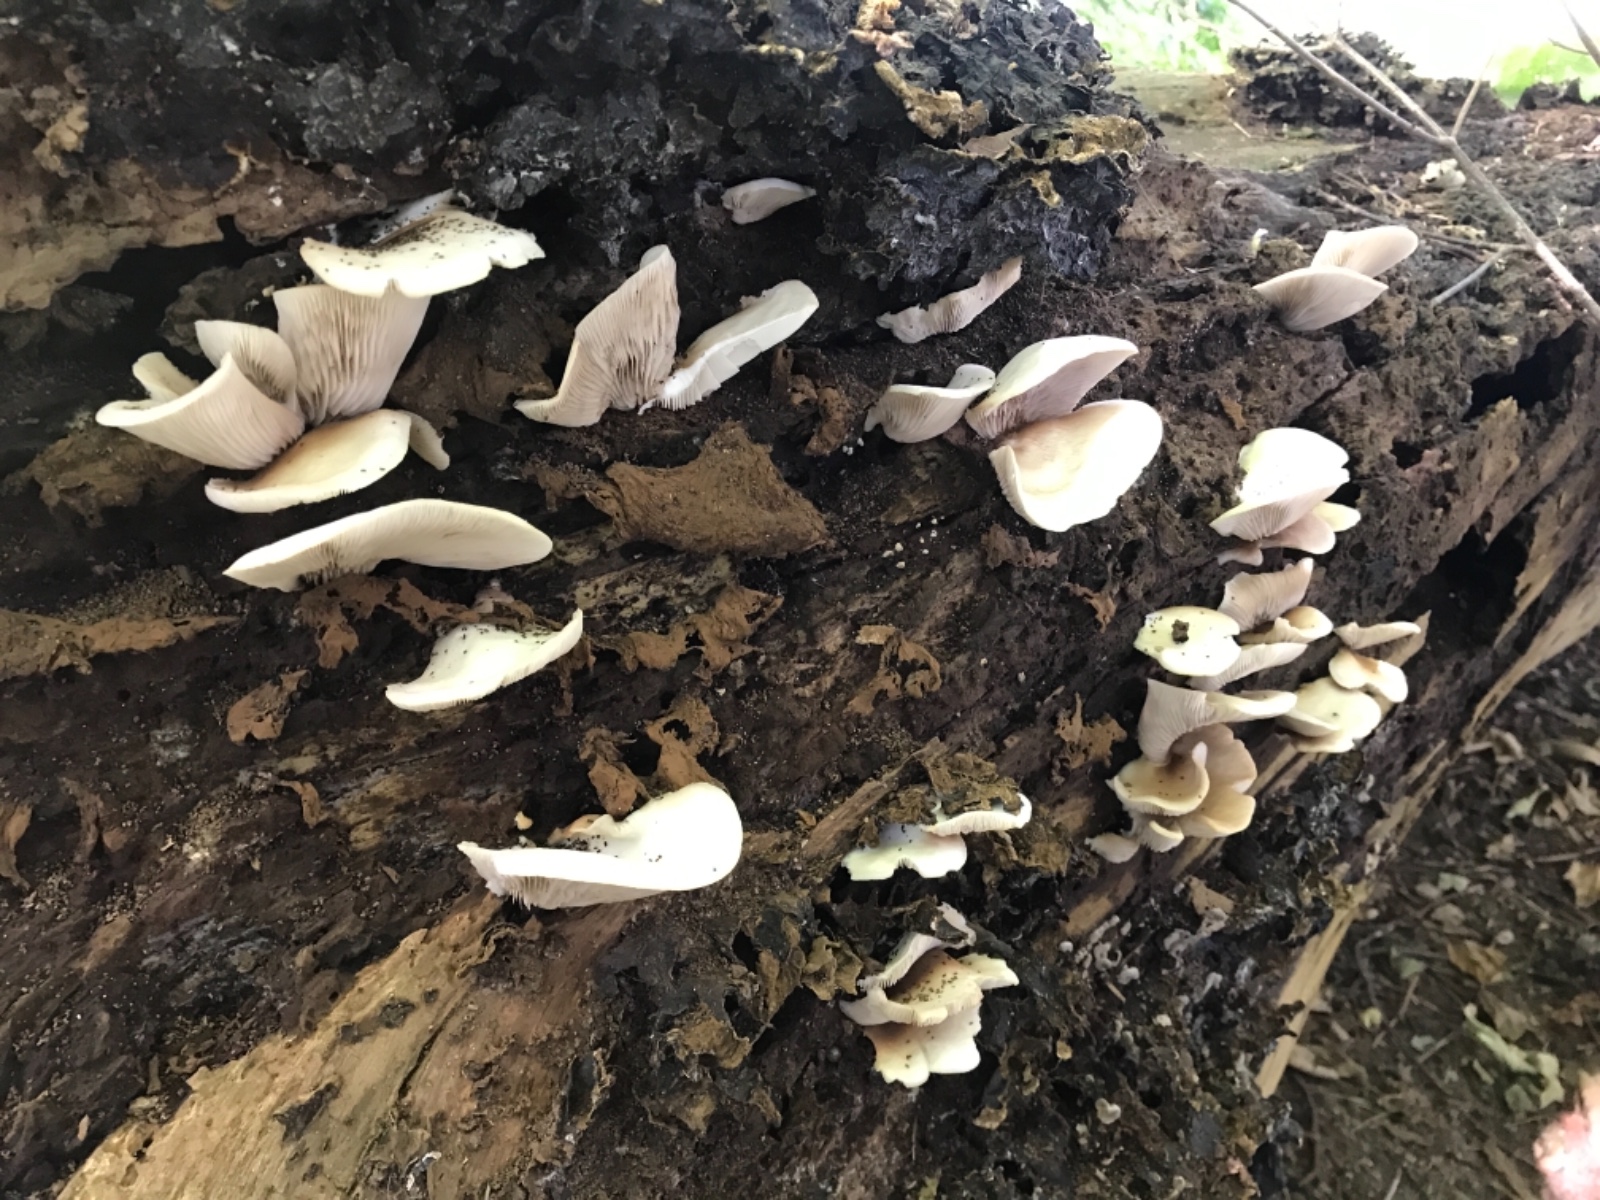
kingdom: Fungi
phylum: Basidiomycota
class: Agaricomycetes
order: Agaricales
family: Crepidotaceae
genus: Crepidotus
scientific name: Crepidotus mollis
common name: blød muslingesvamp
